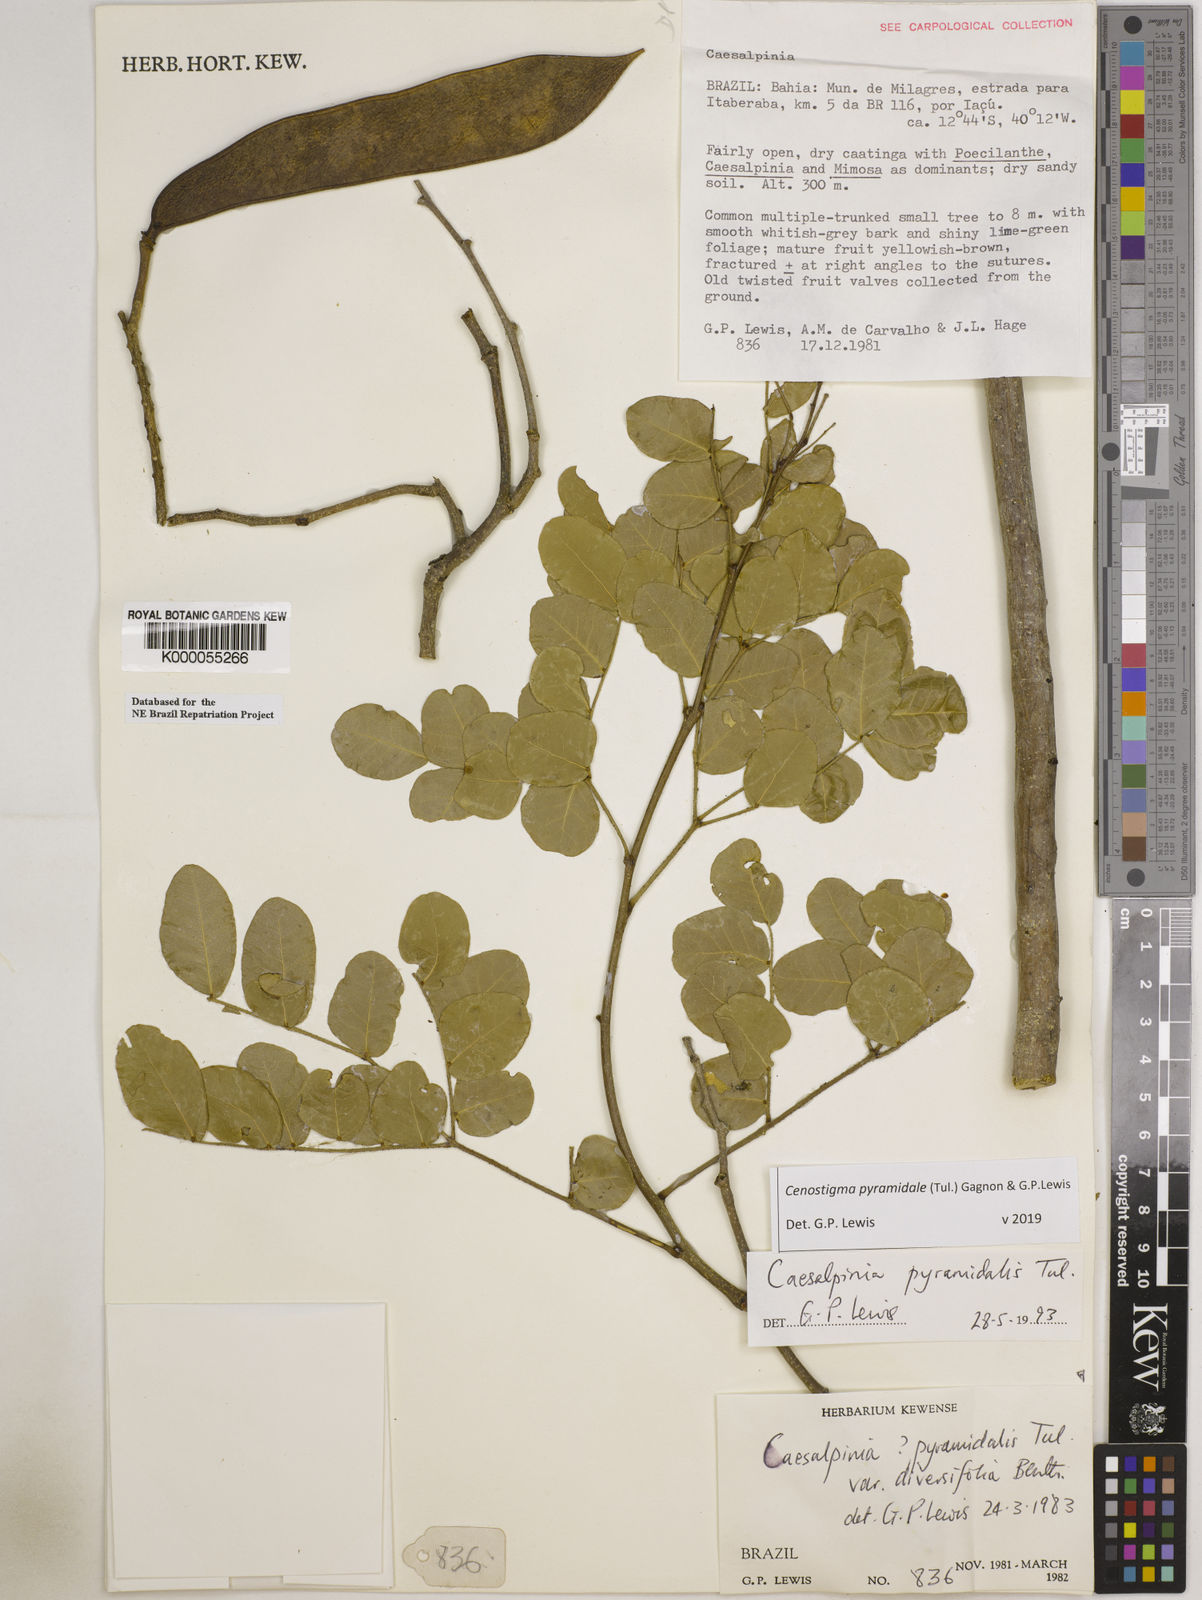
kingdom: Plantae
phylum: Tracheophyta
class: Magnoliopsida
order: Fabales
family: Fabaceae
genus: Cenostigma
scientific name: Cenostigma pyramidale
